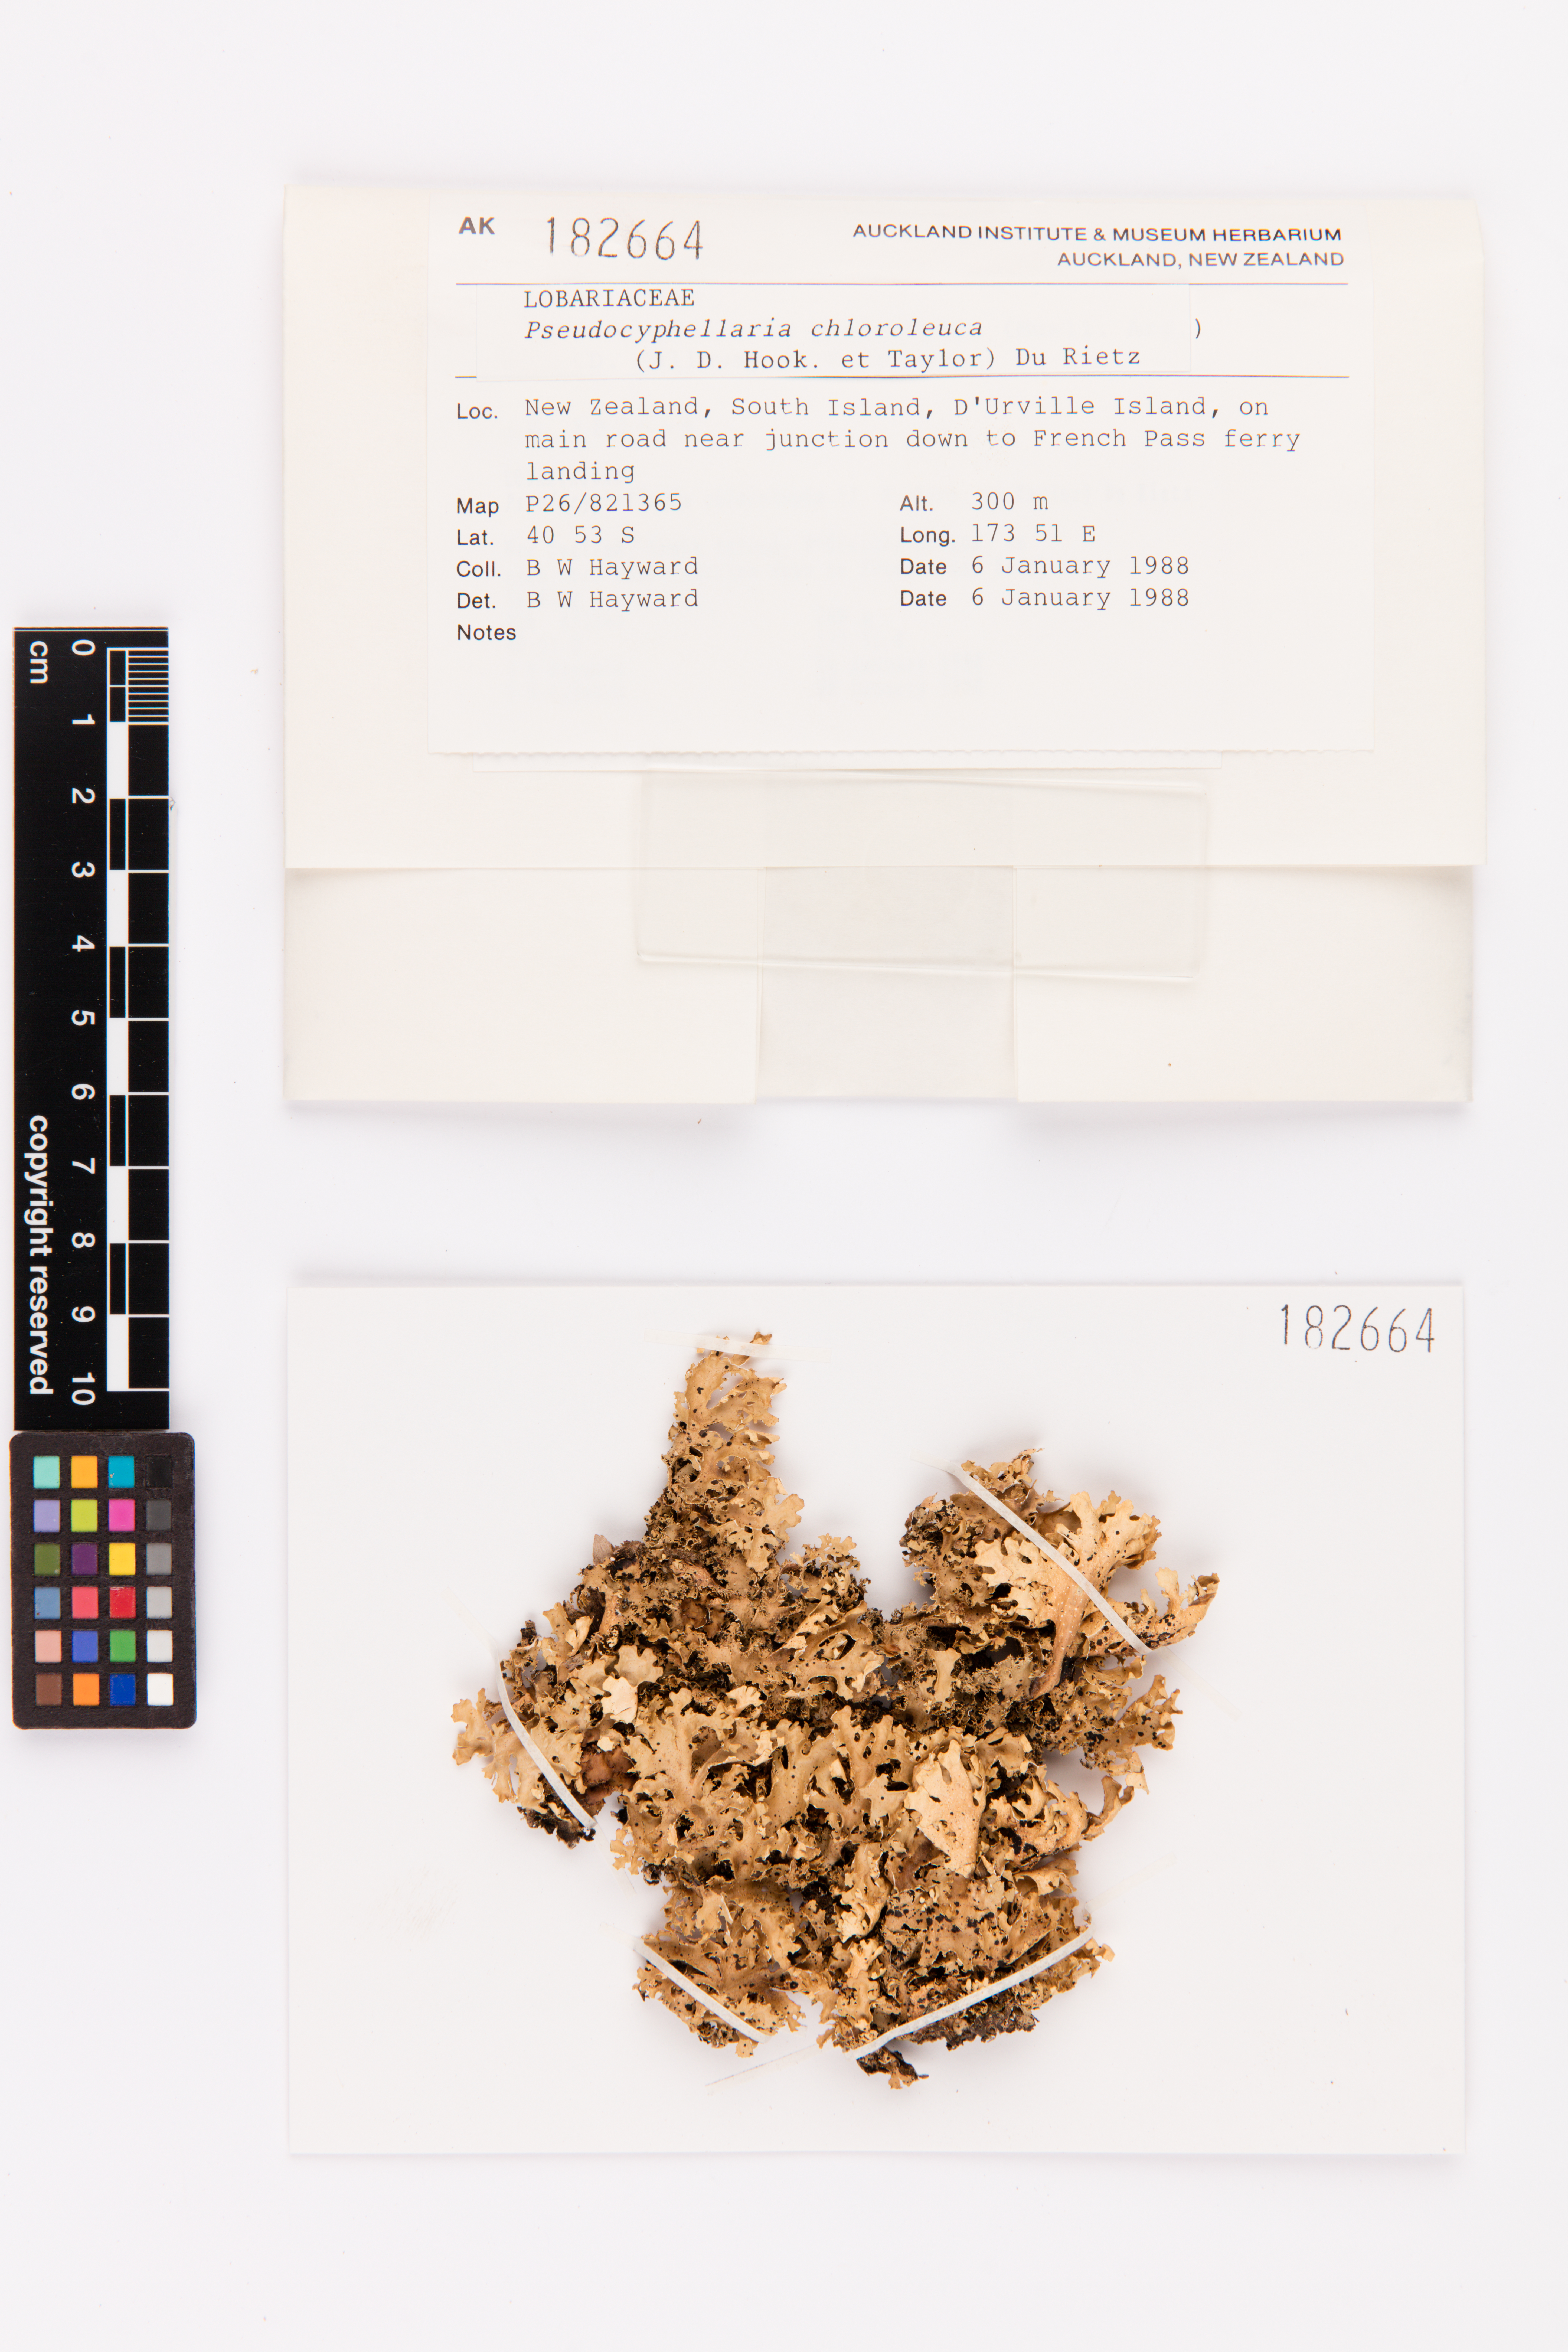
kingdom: Fungi
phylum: Ascomycota
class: Lecanoromycetes
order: Peltigerales
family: Lobariaceae
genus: Pseudocyphellaria
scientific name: Pseudocyphellaria chloroleuca
